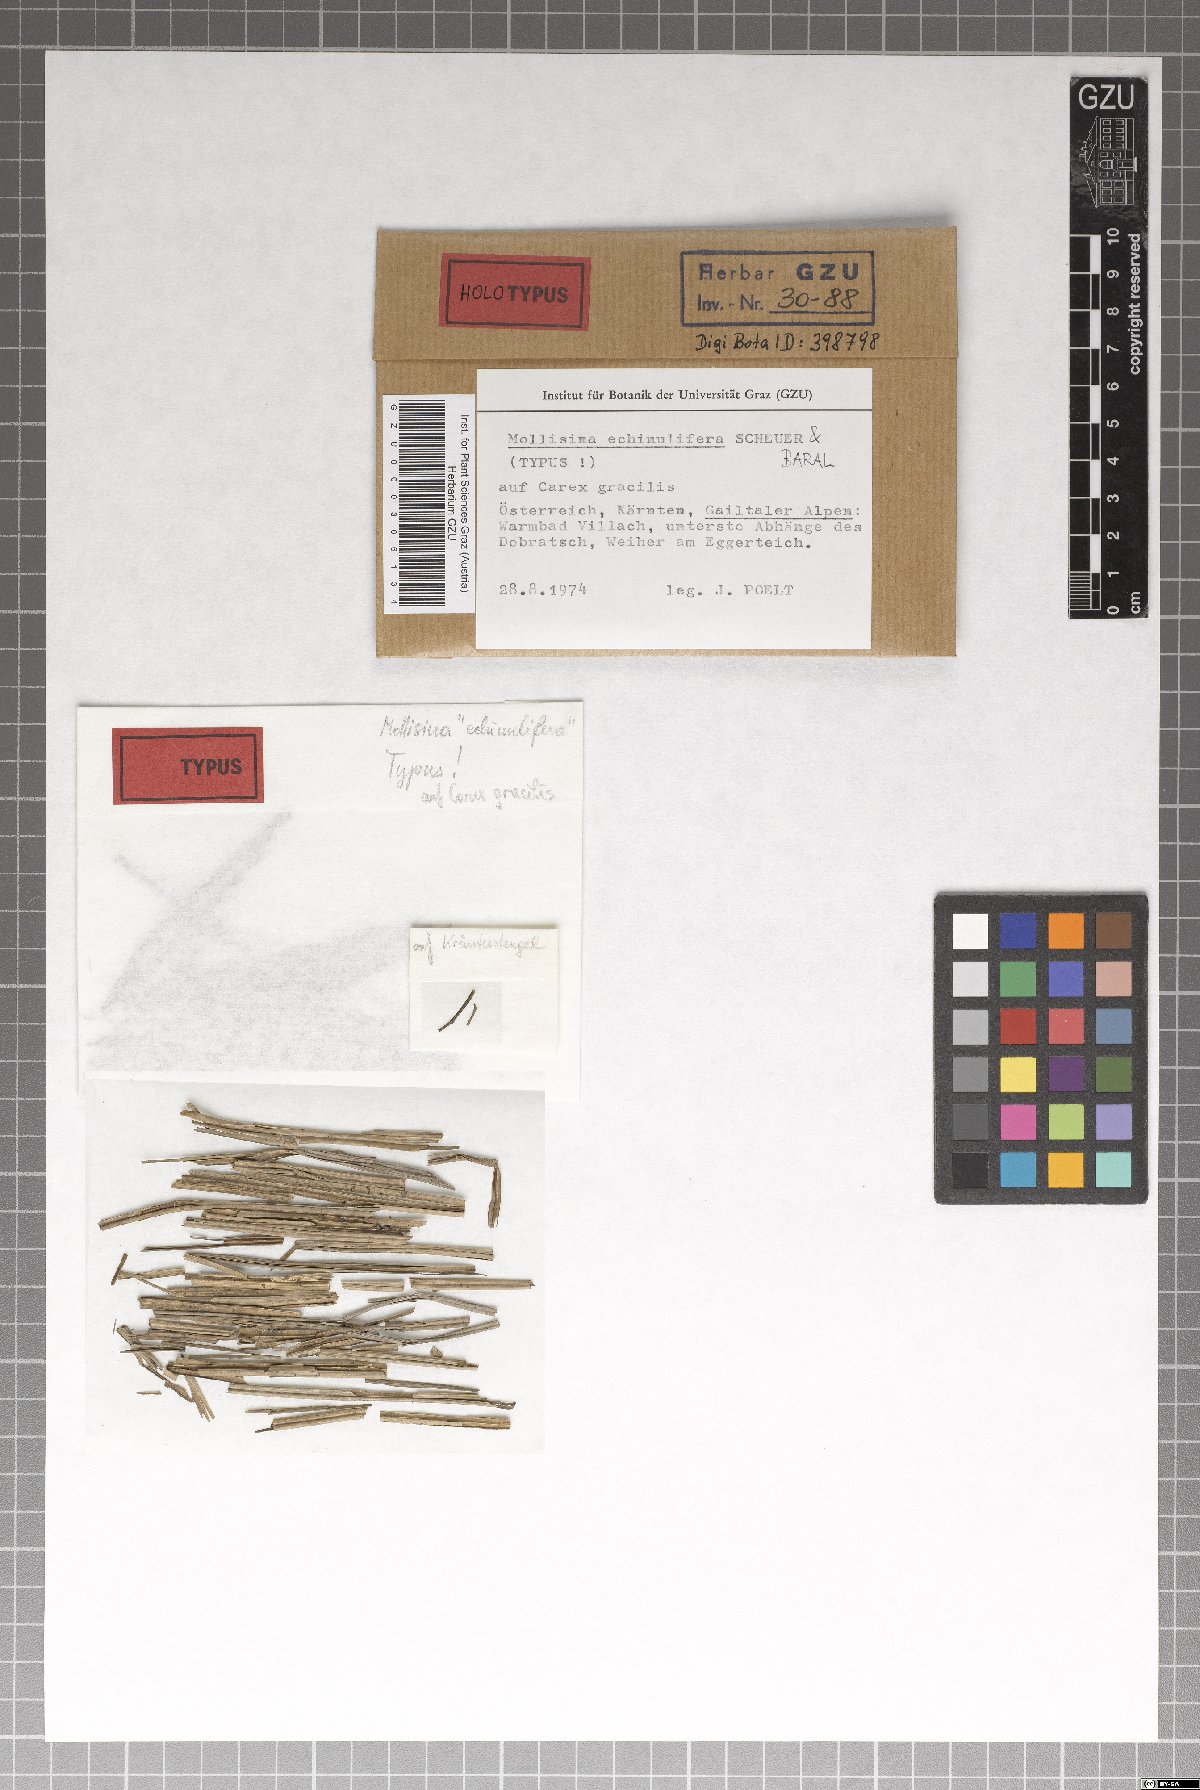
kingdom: Fungi
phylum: Ascomycota
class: Leotiomycetes
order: Helotiales
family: Pezizellaceae
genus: Mollisina
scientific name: Mollisina echinulifera
